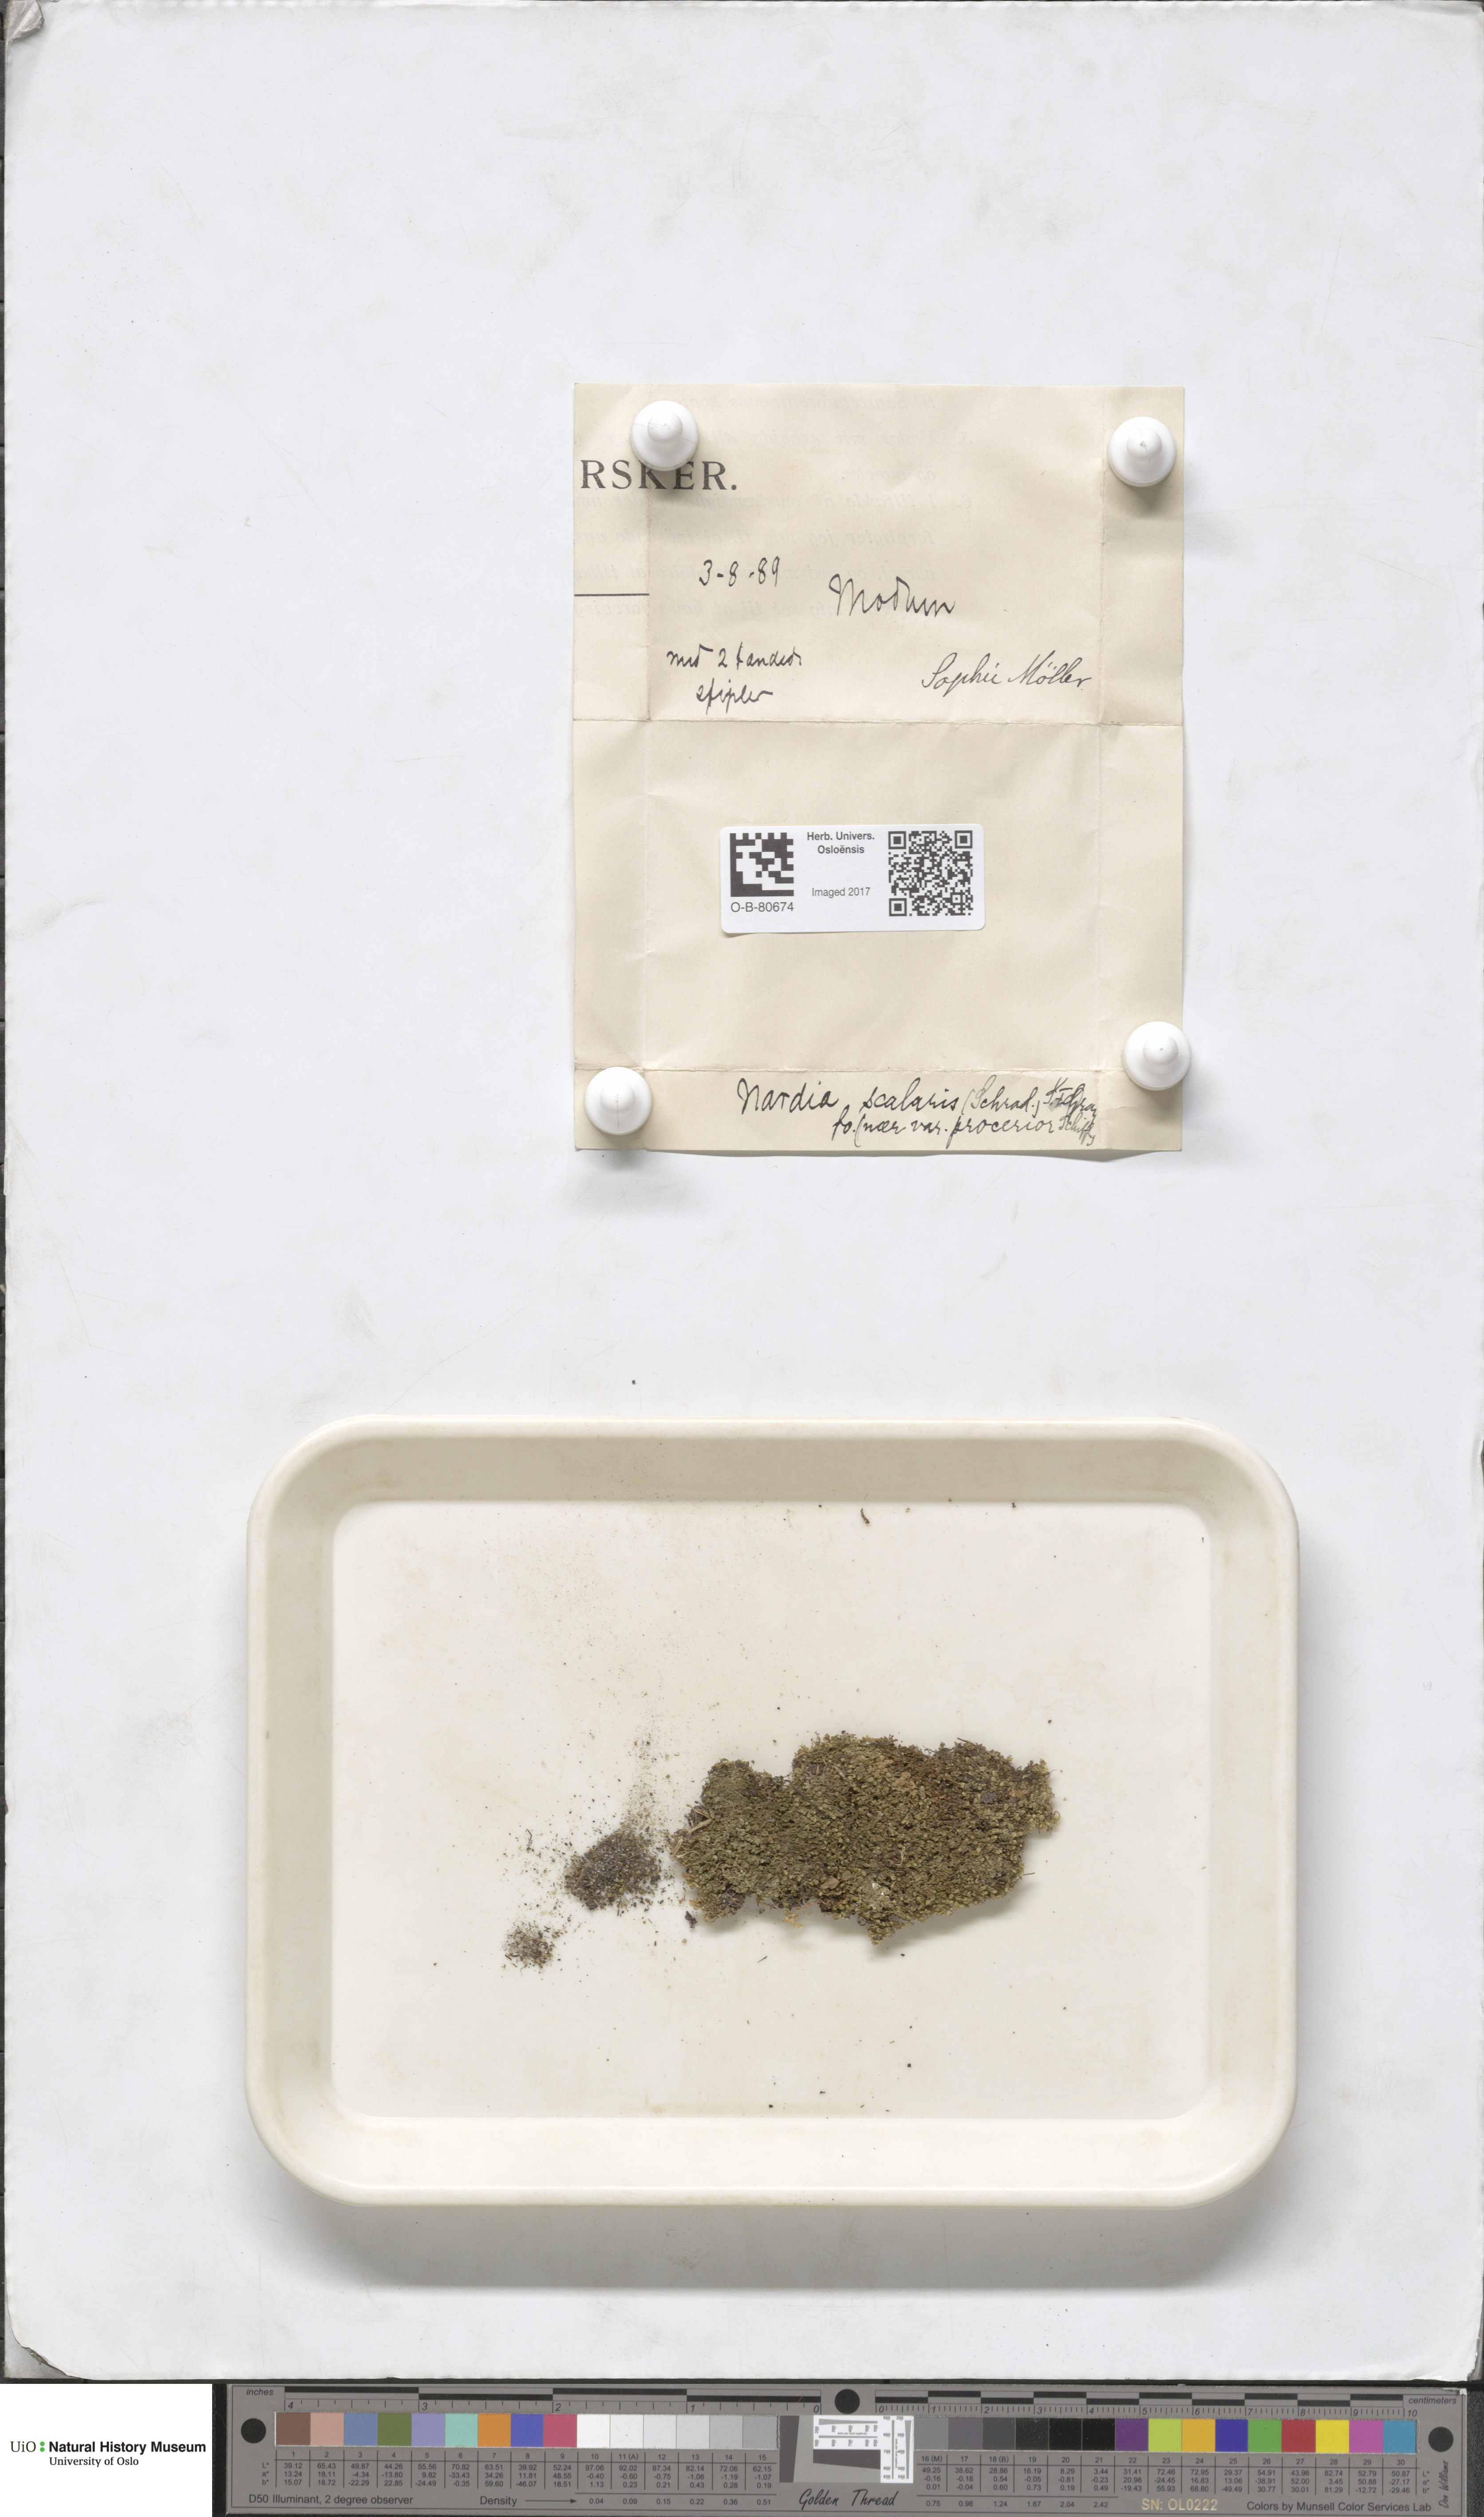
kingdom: Plantae
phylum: Marchantiophyta
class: Jungermanniopsida
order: Jungermanniales
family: Gymnomitriaceae
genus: Nardia
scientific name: Nardia scalaris
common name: Ladder flapwort
